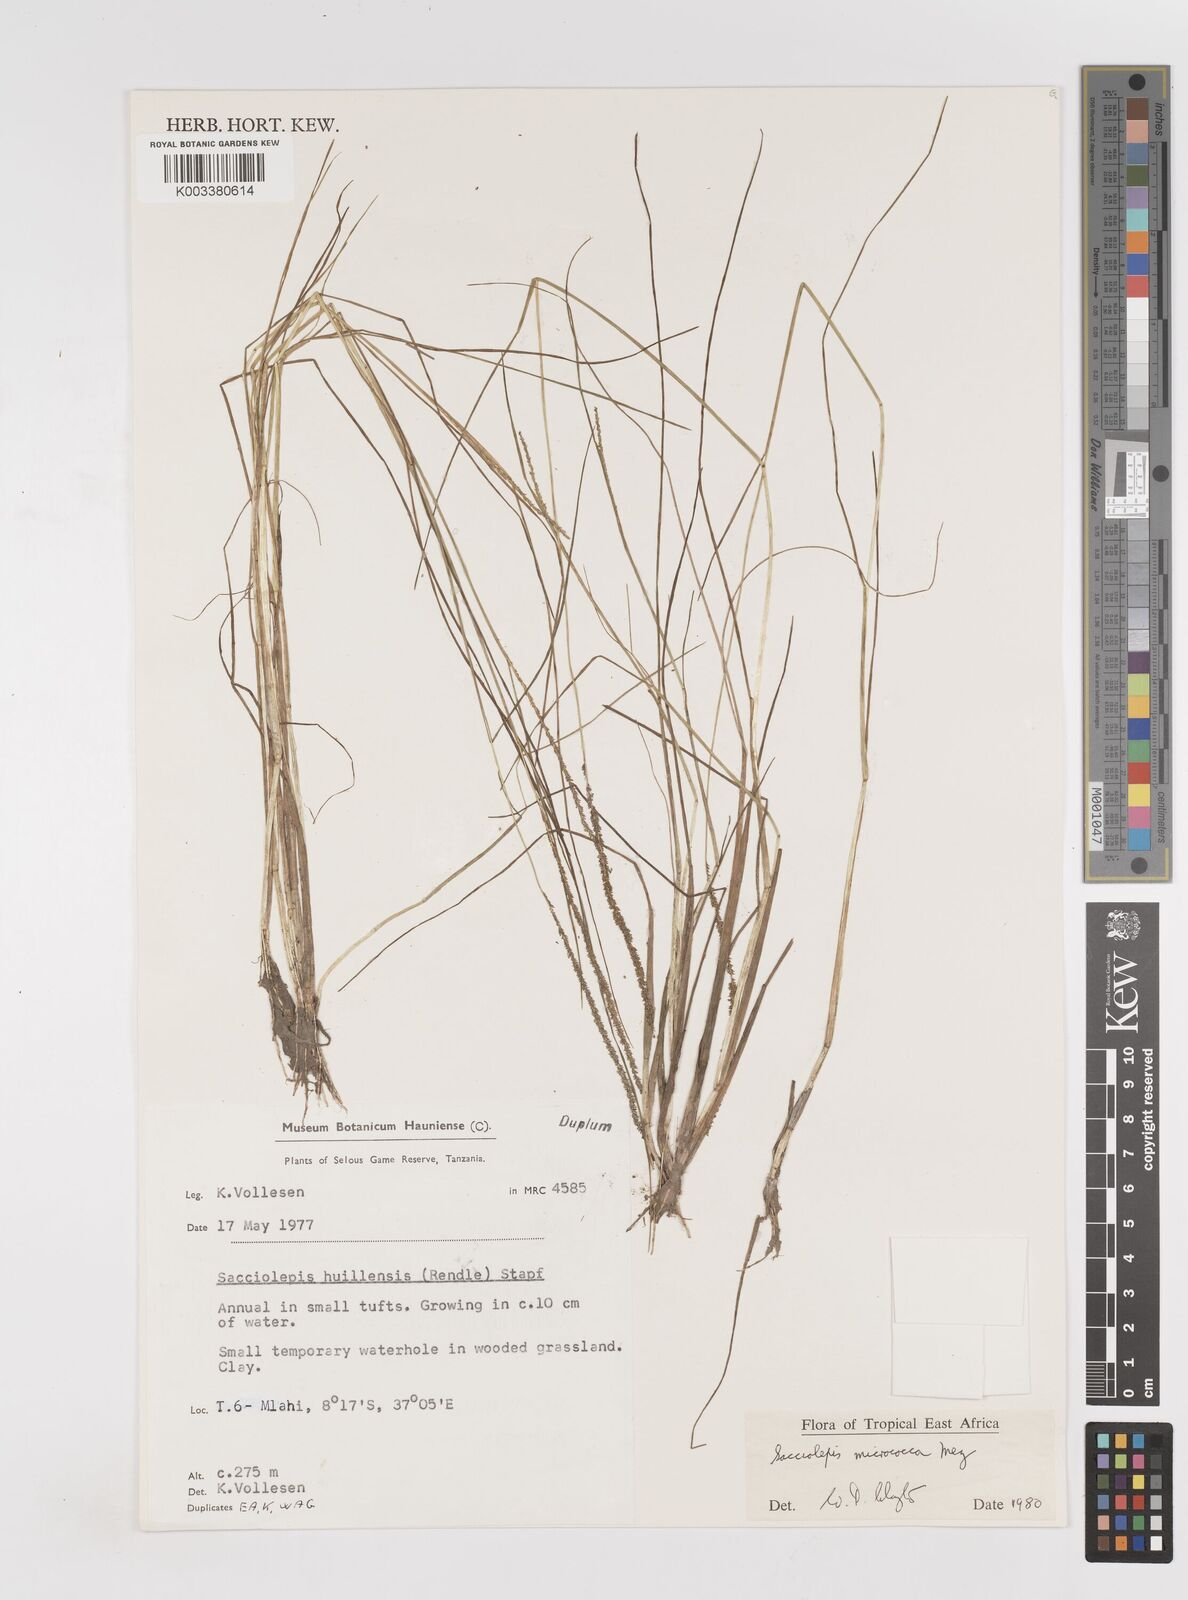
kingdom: Plantae
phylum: Tracheophyta
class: Liliopsida
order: Poales
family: Poaceae
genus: Sacciolepis
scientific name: Sacciolepis micrococca
